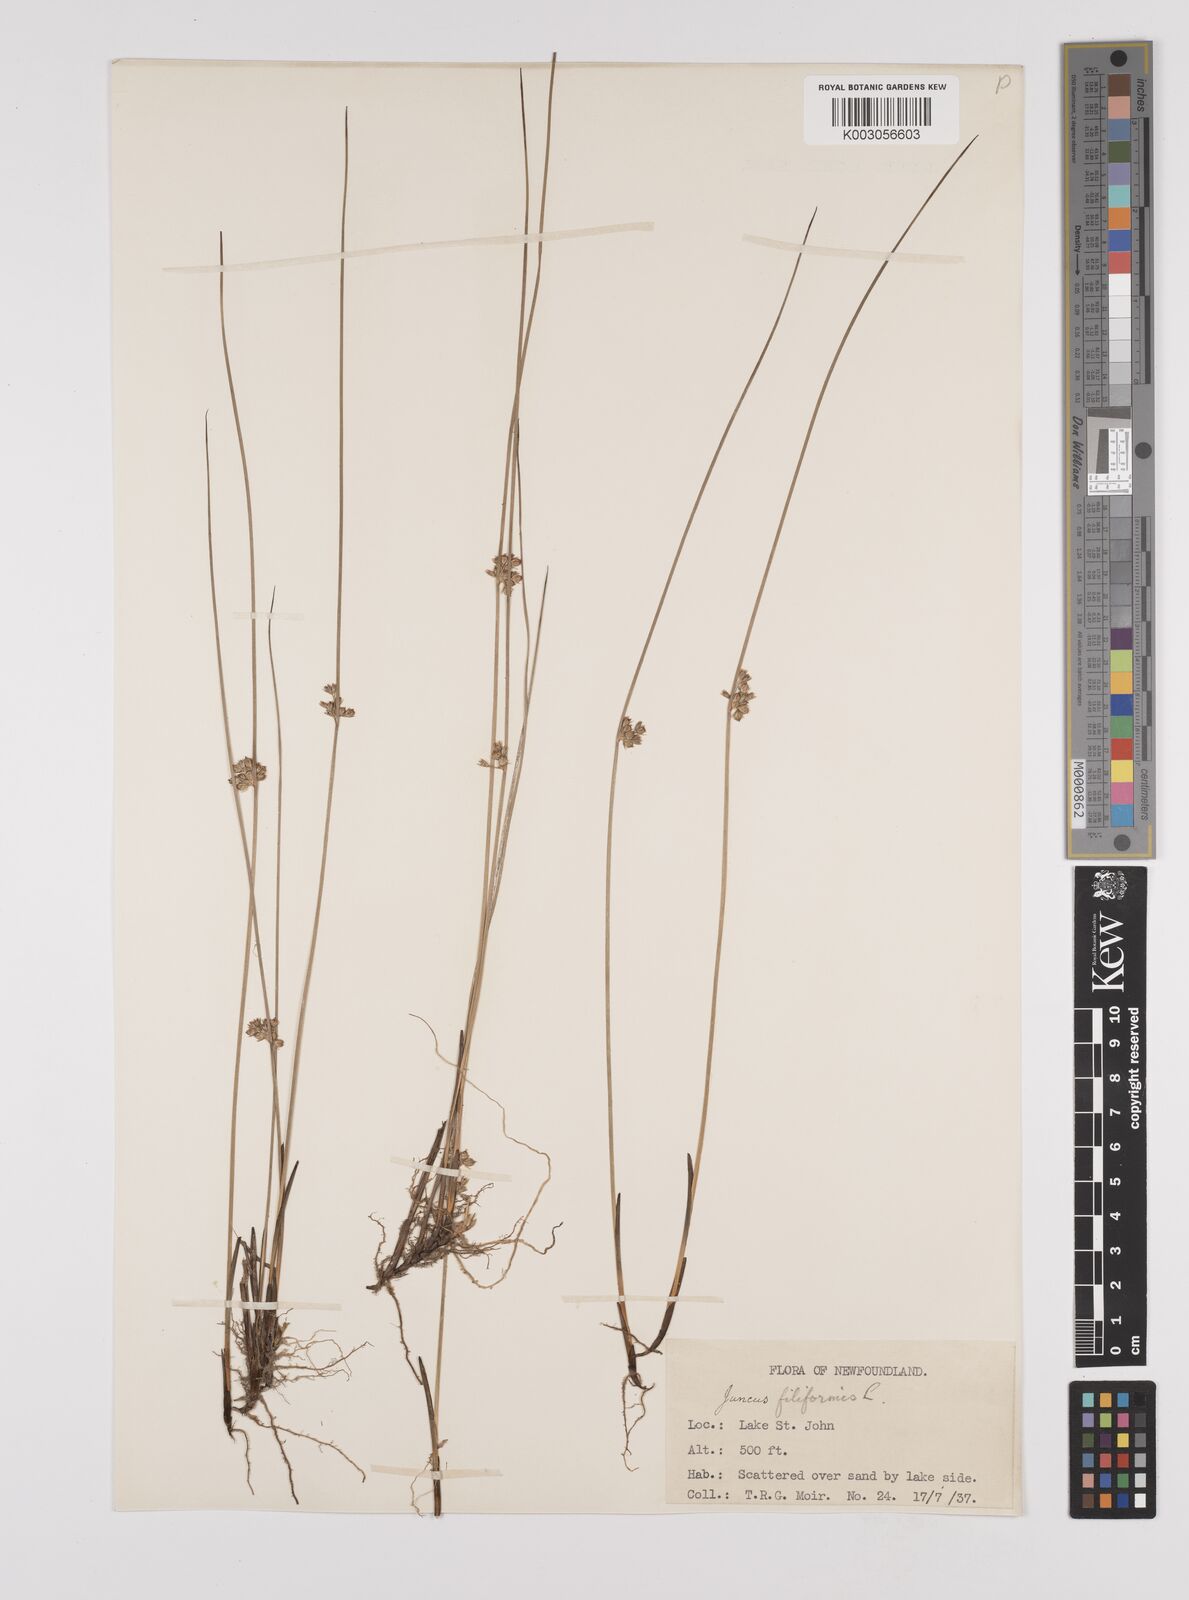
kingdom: Plantae
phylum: Tracheophyta
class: Liliopsida
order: Poales
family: Juncaceae
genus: Juncus
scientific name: Juncus filiformis
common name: Thread rush
